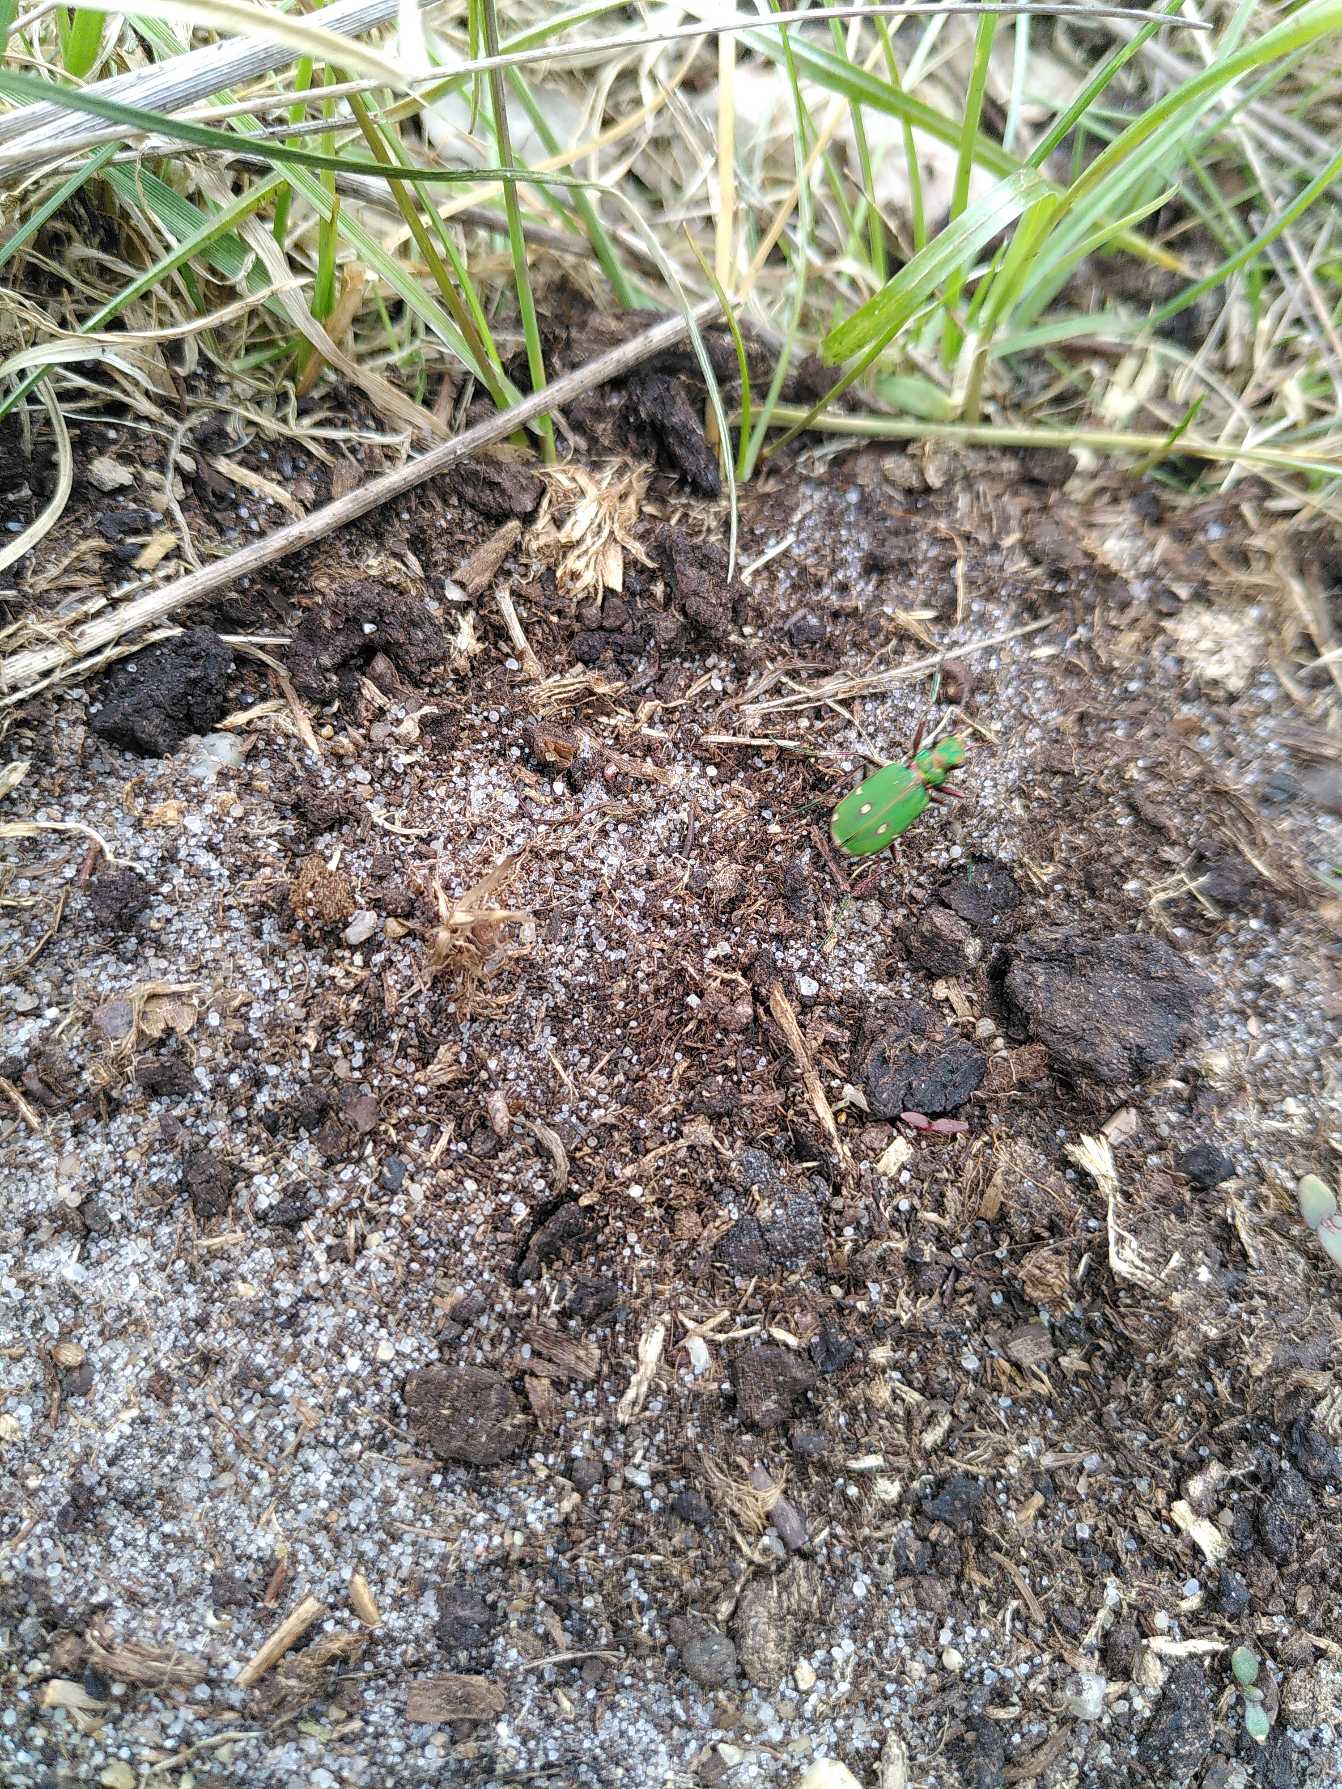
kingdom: Animalia
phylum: Arthropoda
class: Insecta
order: Coleoptera
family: Carabidae
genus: Cicindela
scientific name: Cicindela campestris
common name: Grøn sandspringer
